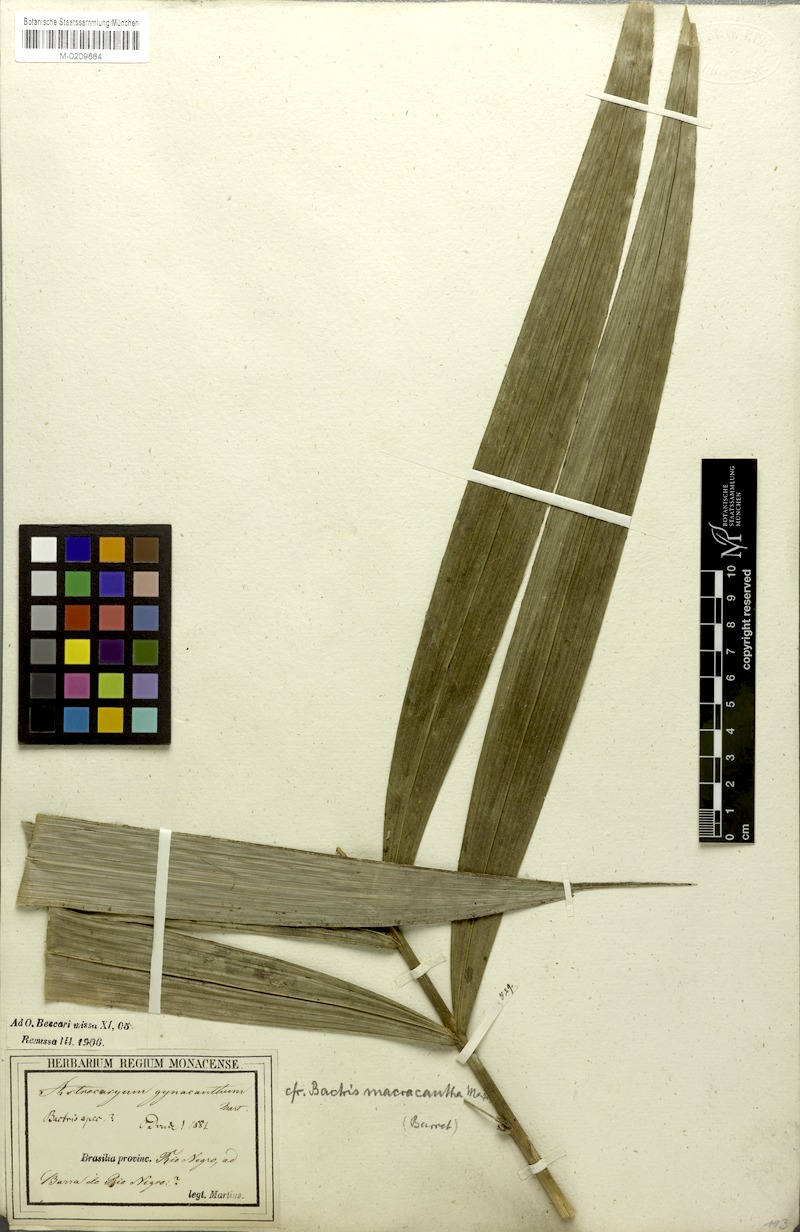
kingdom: Plantae
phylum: Tracheophyta
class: Liliopsida
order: Arecales
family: Arecaceae
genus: Bactris
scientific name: Bactris macroacantha
